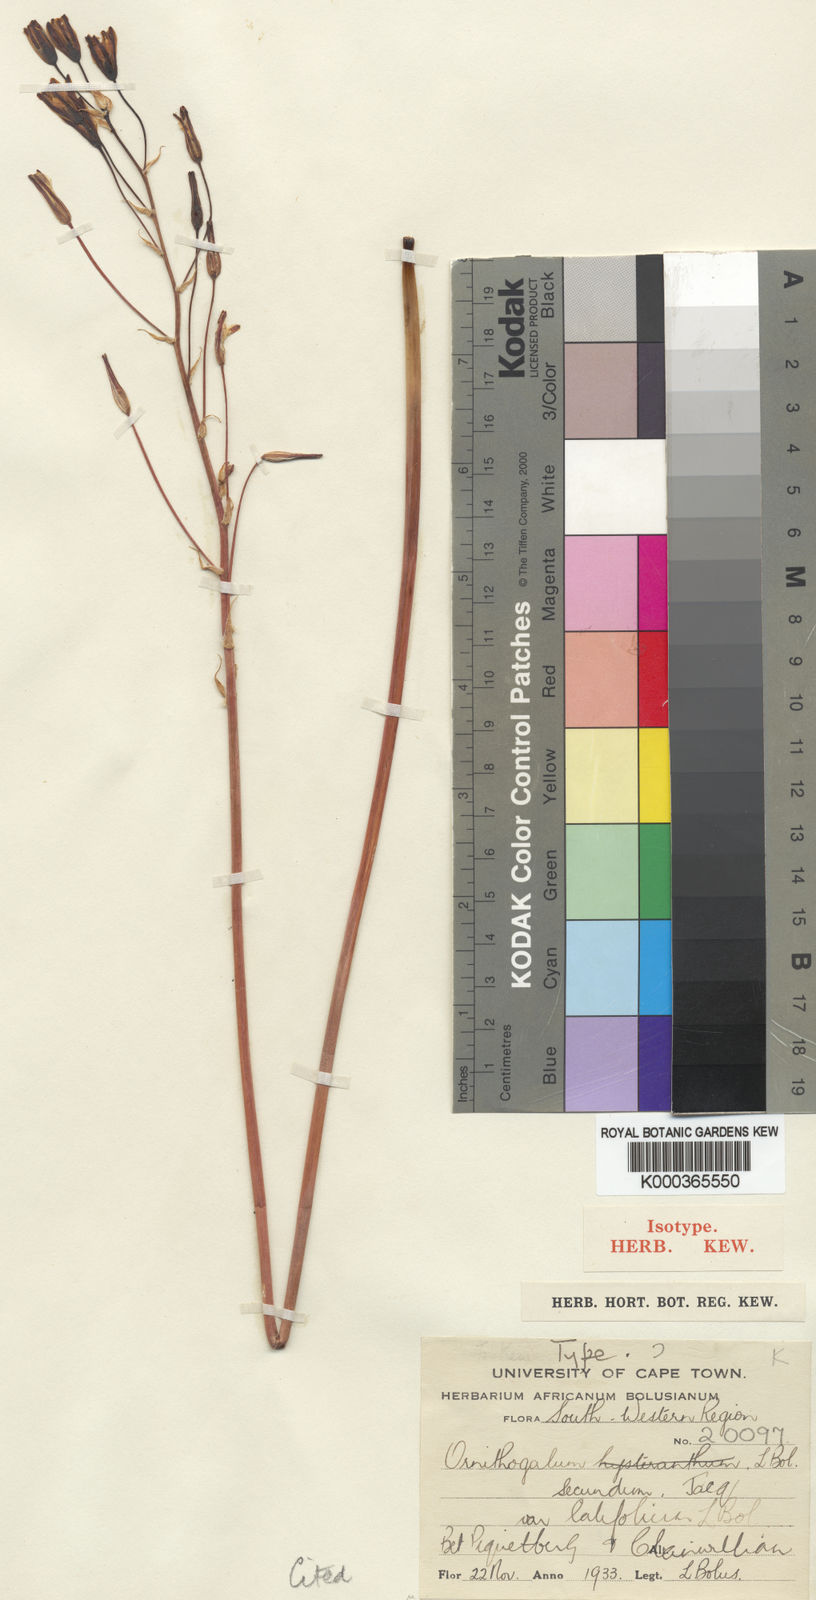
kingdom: Plantae
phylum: Tracheophyta
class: Liliopsida
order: Asparagales
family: Asparagaceae
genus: Albuca
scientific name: Albuca secunda
